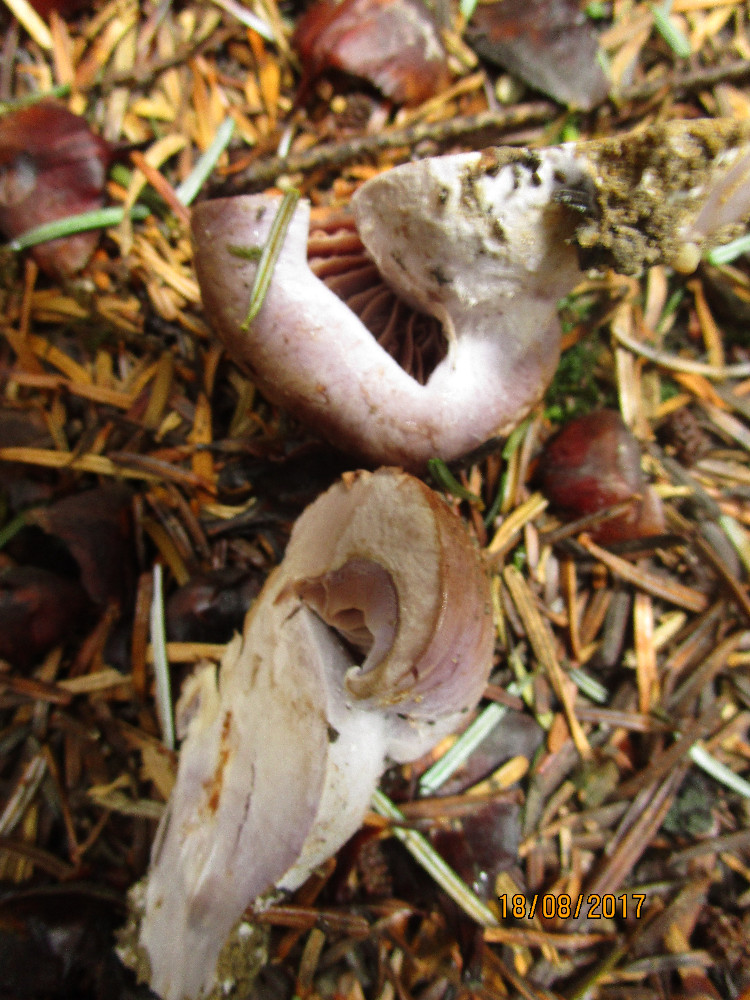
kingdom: Fungi
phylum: Basidiomycota
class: Agaricomycetes
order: Agaricales
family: Cortinariaceae
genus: Cortinarius
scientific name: Cortinarius largus
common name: violetrandet slørhat
